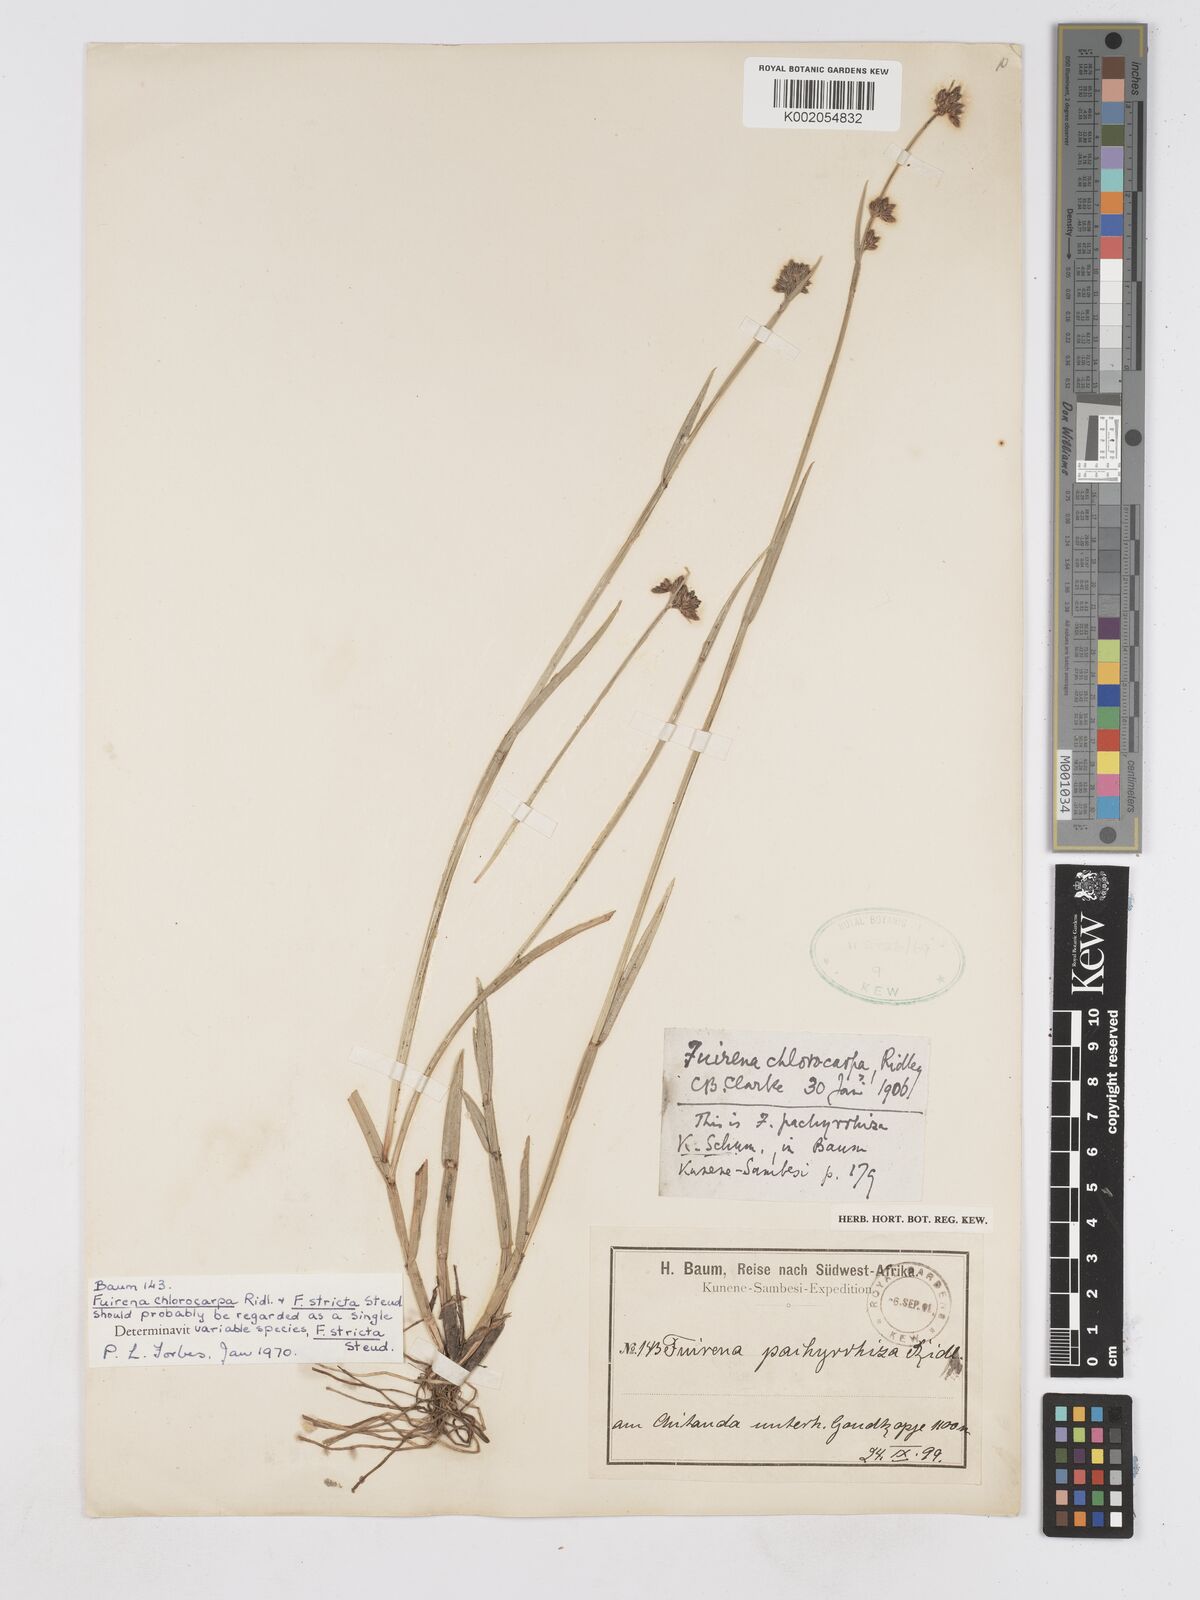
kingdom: Plantae
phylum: Tracheophyta
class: Liliopsida
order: Poales
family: Cyperaceae
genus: Fuirena
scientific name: Fuirena stricta
